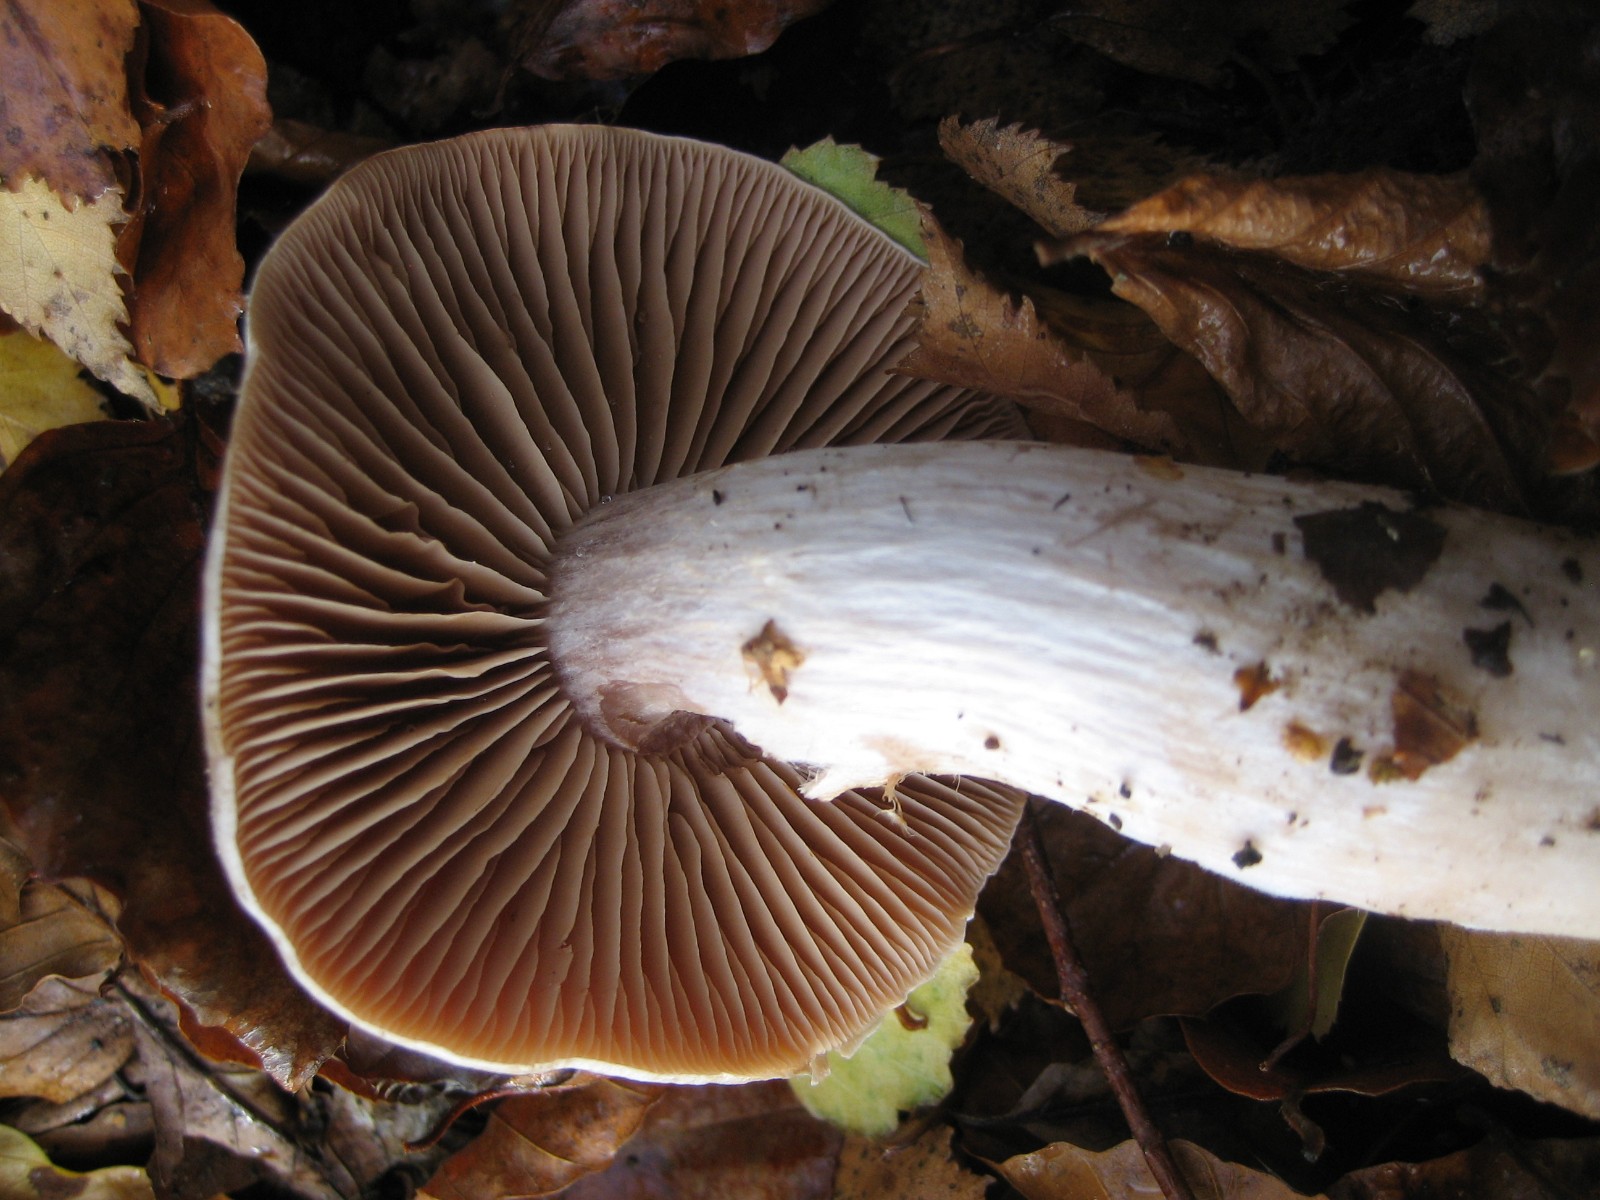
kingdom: Fungi
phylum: Basidiomycota
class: Agaricomycetes
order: Agaricales
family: Cortinariaceae
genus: Cortinarius
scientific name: Cortinarius
